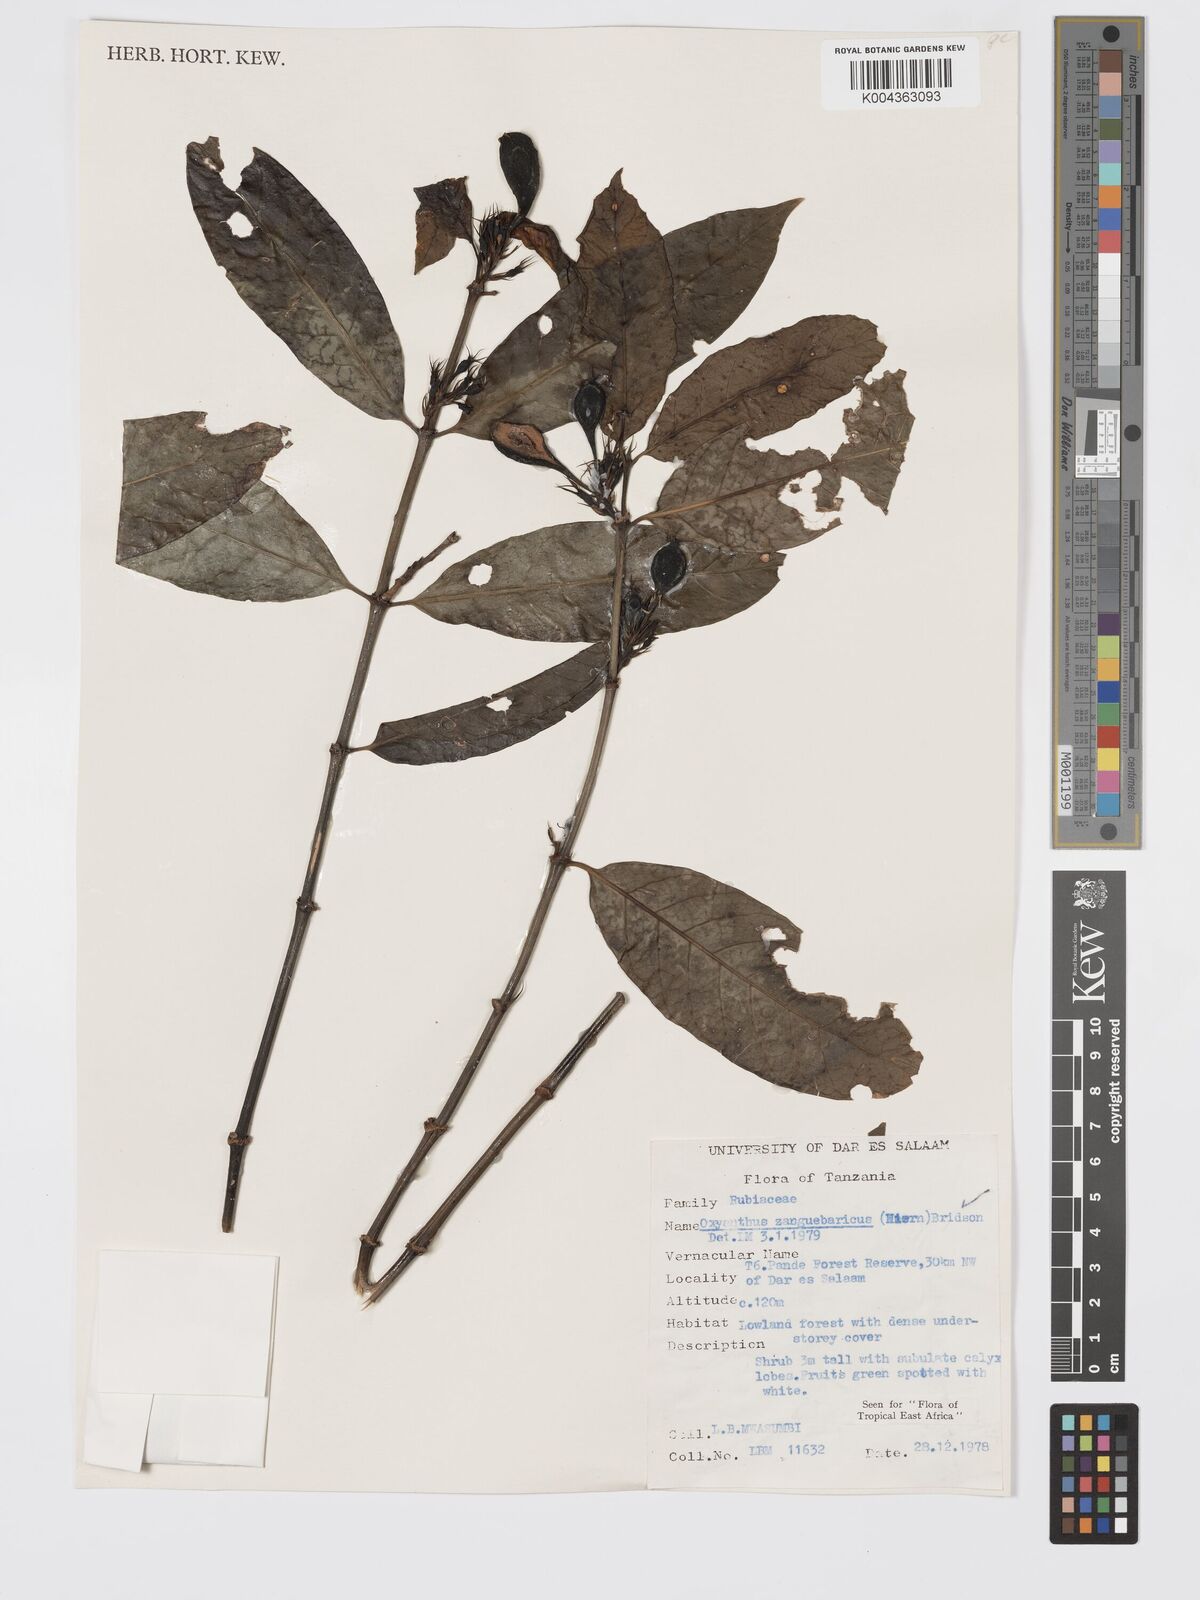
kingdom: Plantae
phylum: Tracheophyta
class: Magnoliopsida
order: Gentianales
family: Rubiaceae
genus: Oxyanthus
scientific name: Oxyanthus zanguebaricus
